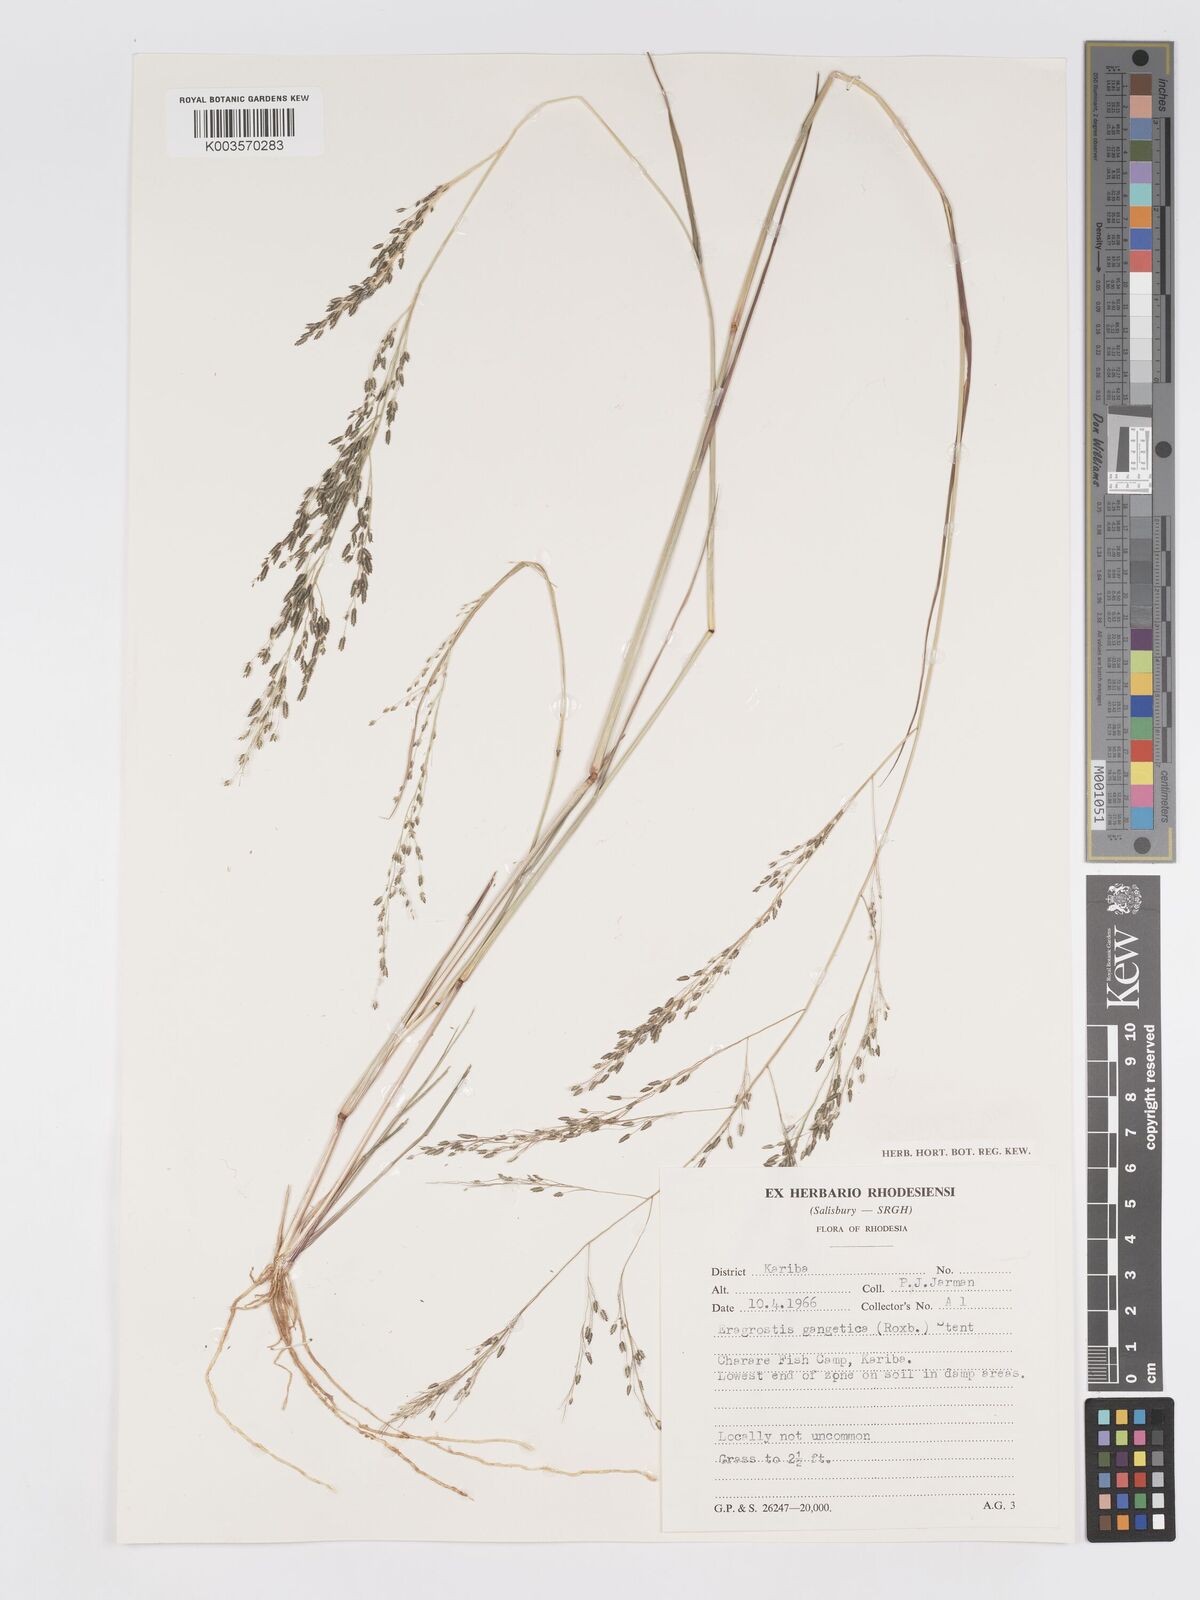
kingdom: Plantae
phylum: Tracheophyta
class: Liliopsida
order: Poales
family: Poaceae
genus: Eragrostis
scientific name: Eragrostis gangetica
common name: Slimflower lovegrass
